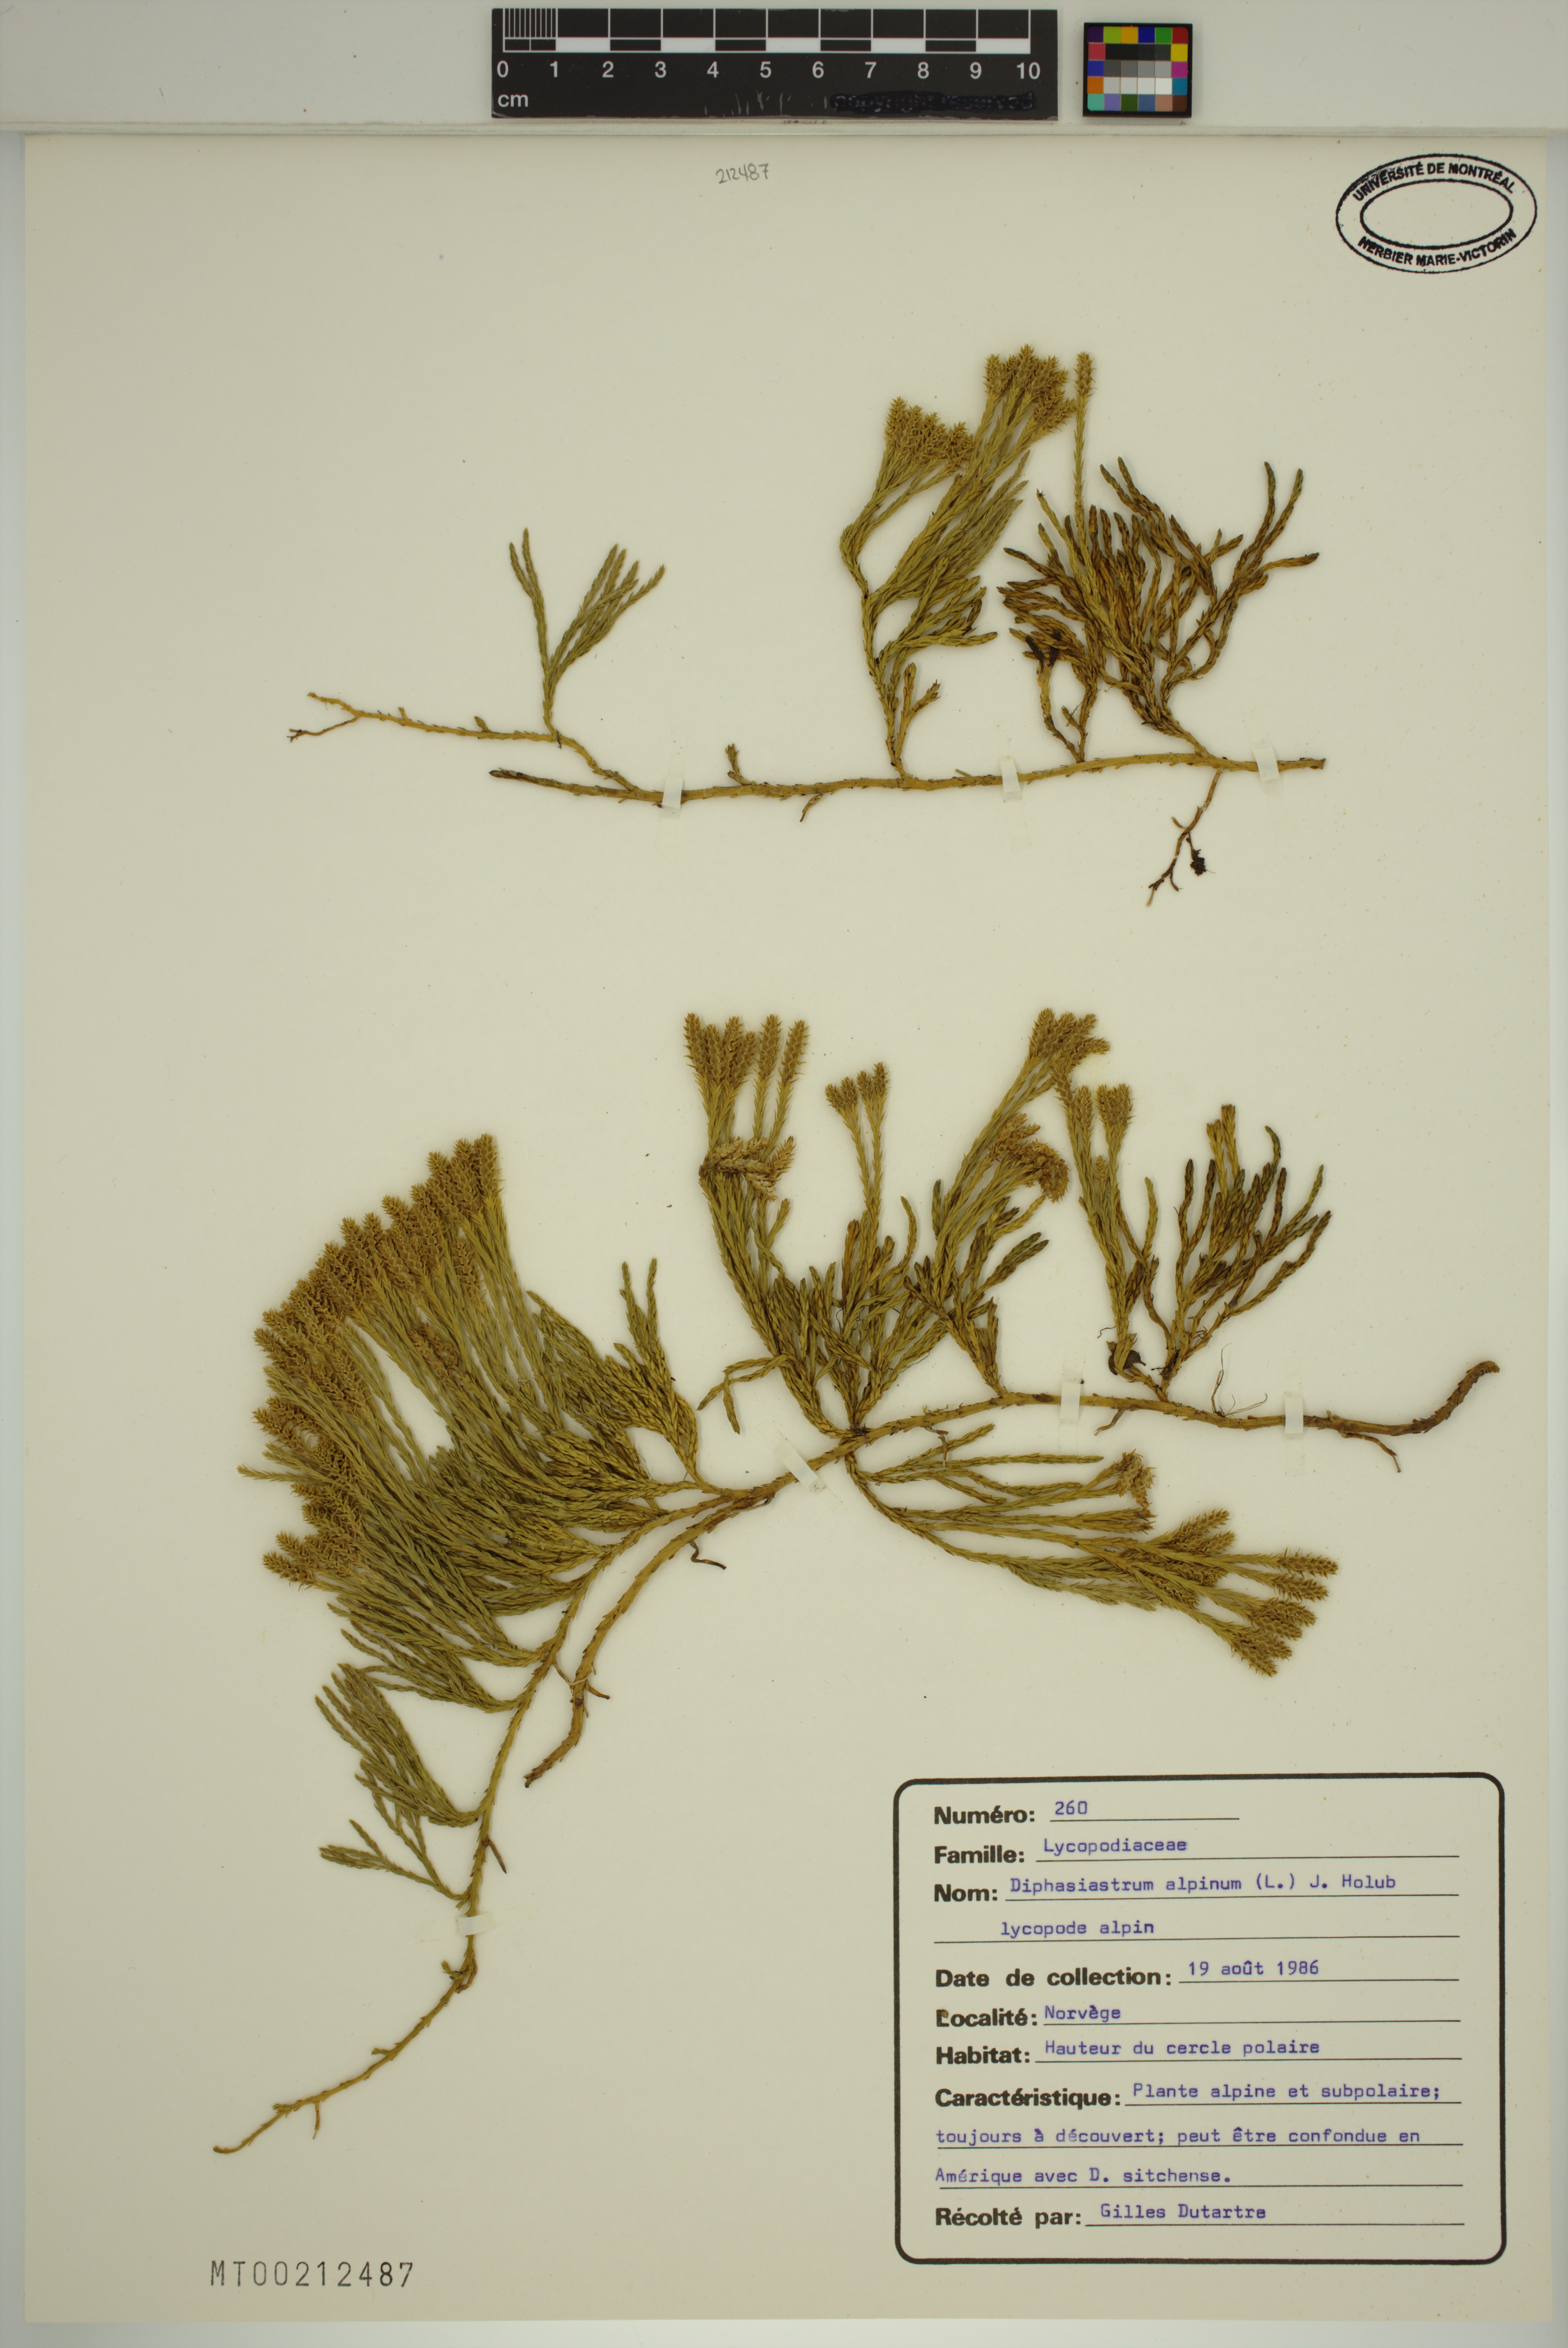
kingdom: Plantae
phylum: Tracheophyta
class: Lycopodiopsida
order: Lycopodiales
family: Lycopodiaceae
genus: Diphasiastrum
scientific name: Diphasiastrum alpinum
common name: Alpine clubmoss
